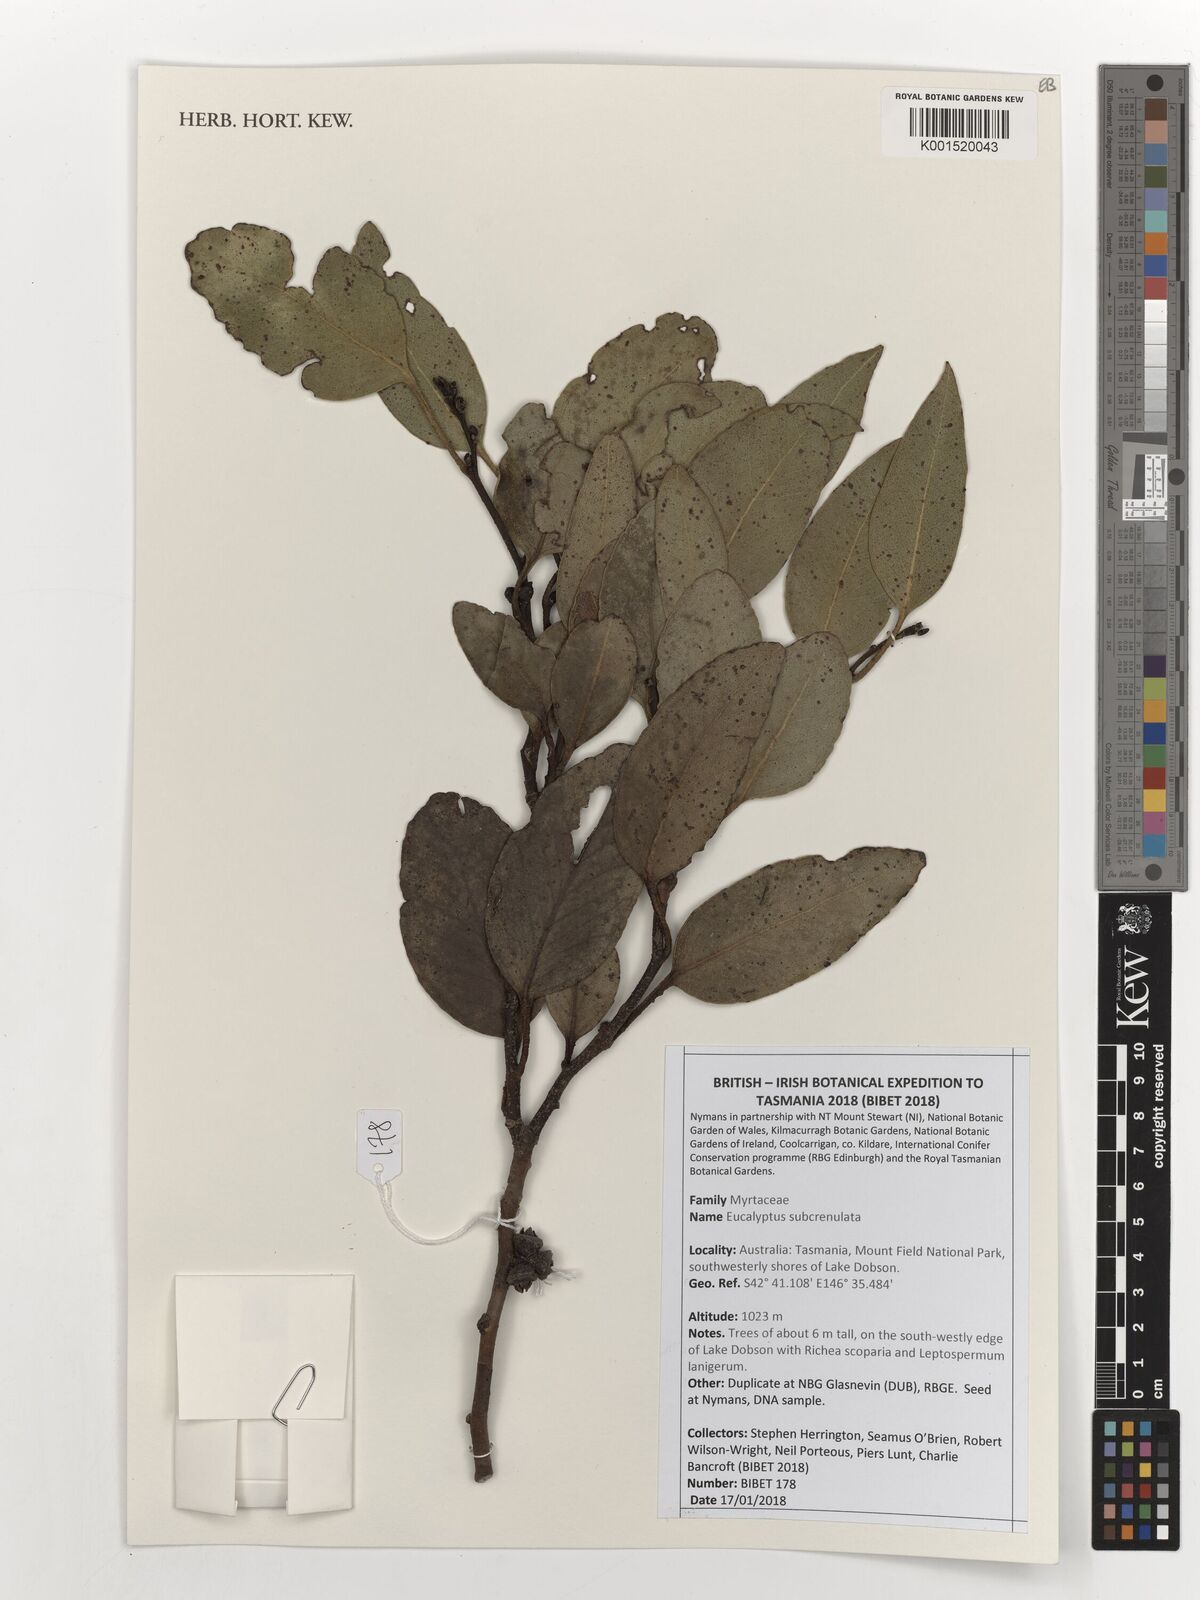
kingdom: Plantae
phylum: Tracheophyta
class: Magnoliopsida
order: Myrtales
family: Myrtaceae
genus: Eucalyptus
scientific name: Eucalyptus subcrenulata
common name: Alpine yellow gum
